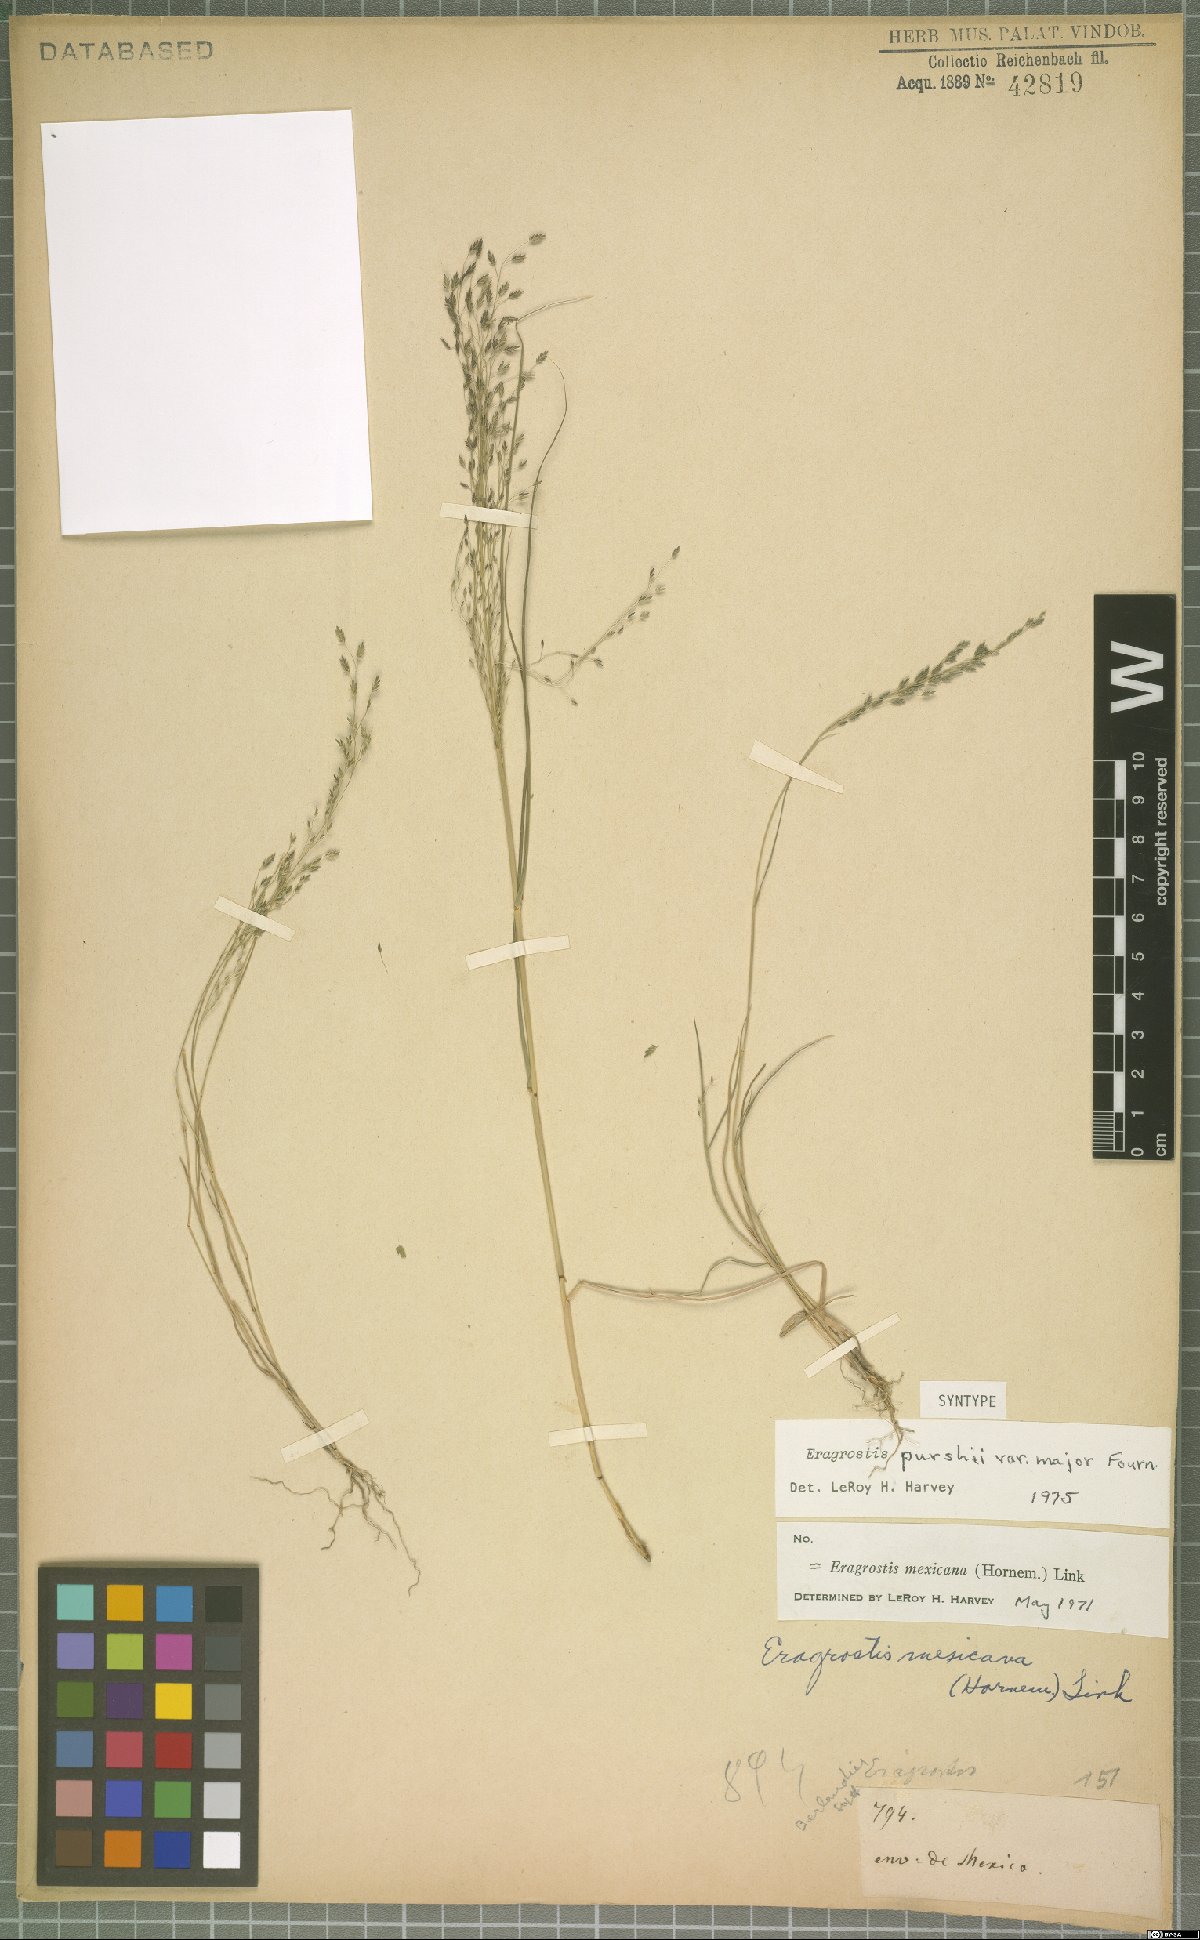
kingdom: Plantae
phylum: Tracheophyta
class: Liliopsida
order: Poales
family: Poaceae
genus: Eragrostis
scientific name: Eragrostis mexicana
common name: Mexican love grass
